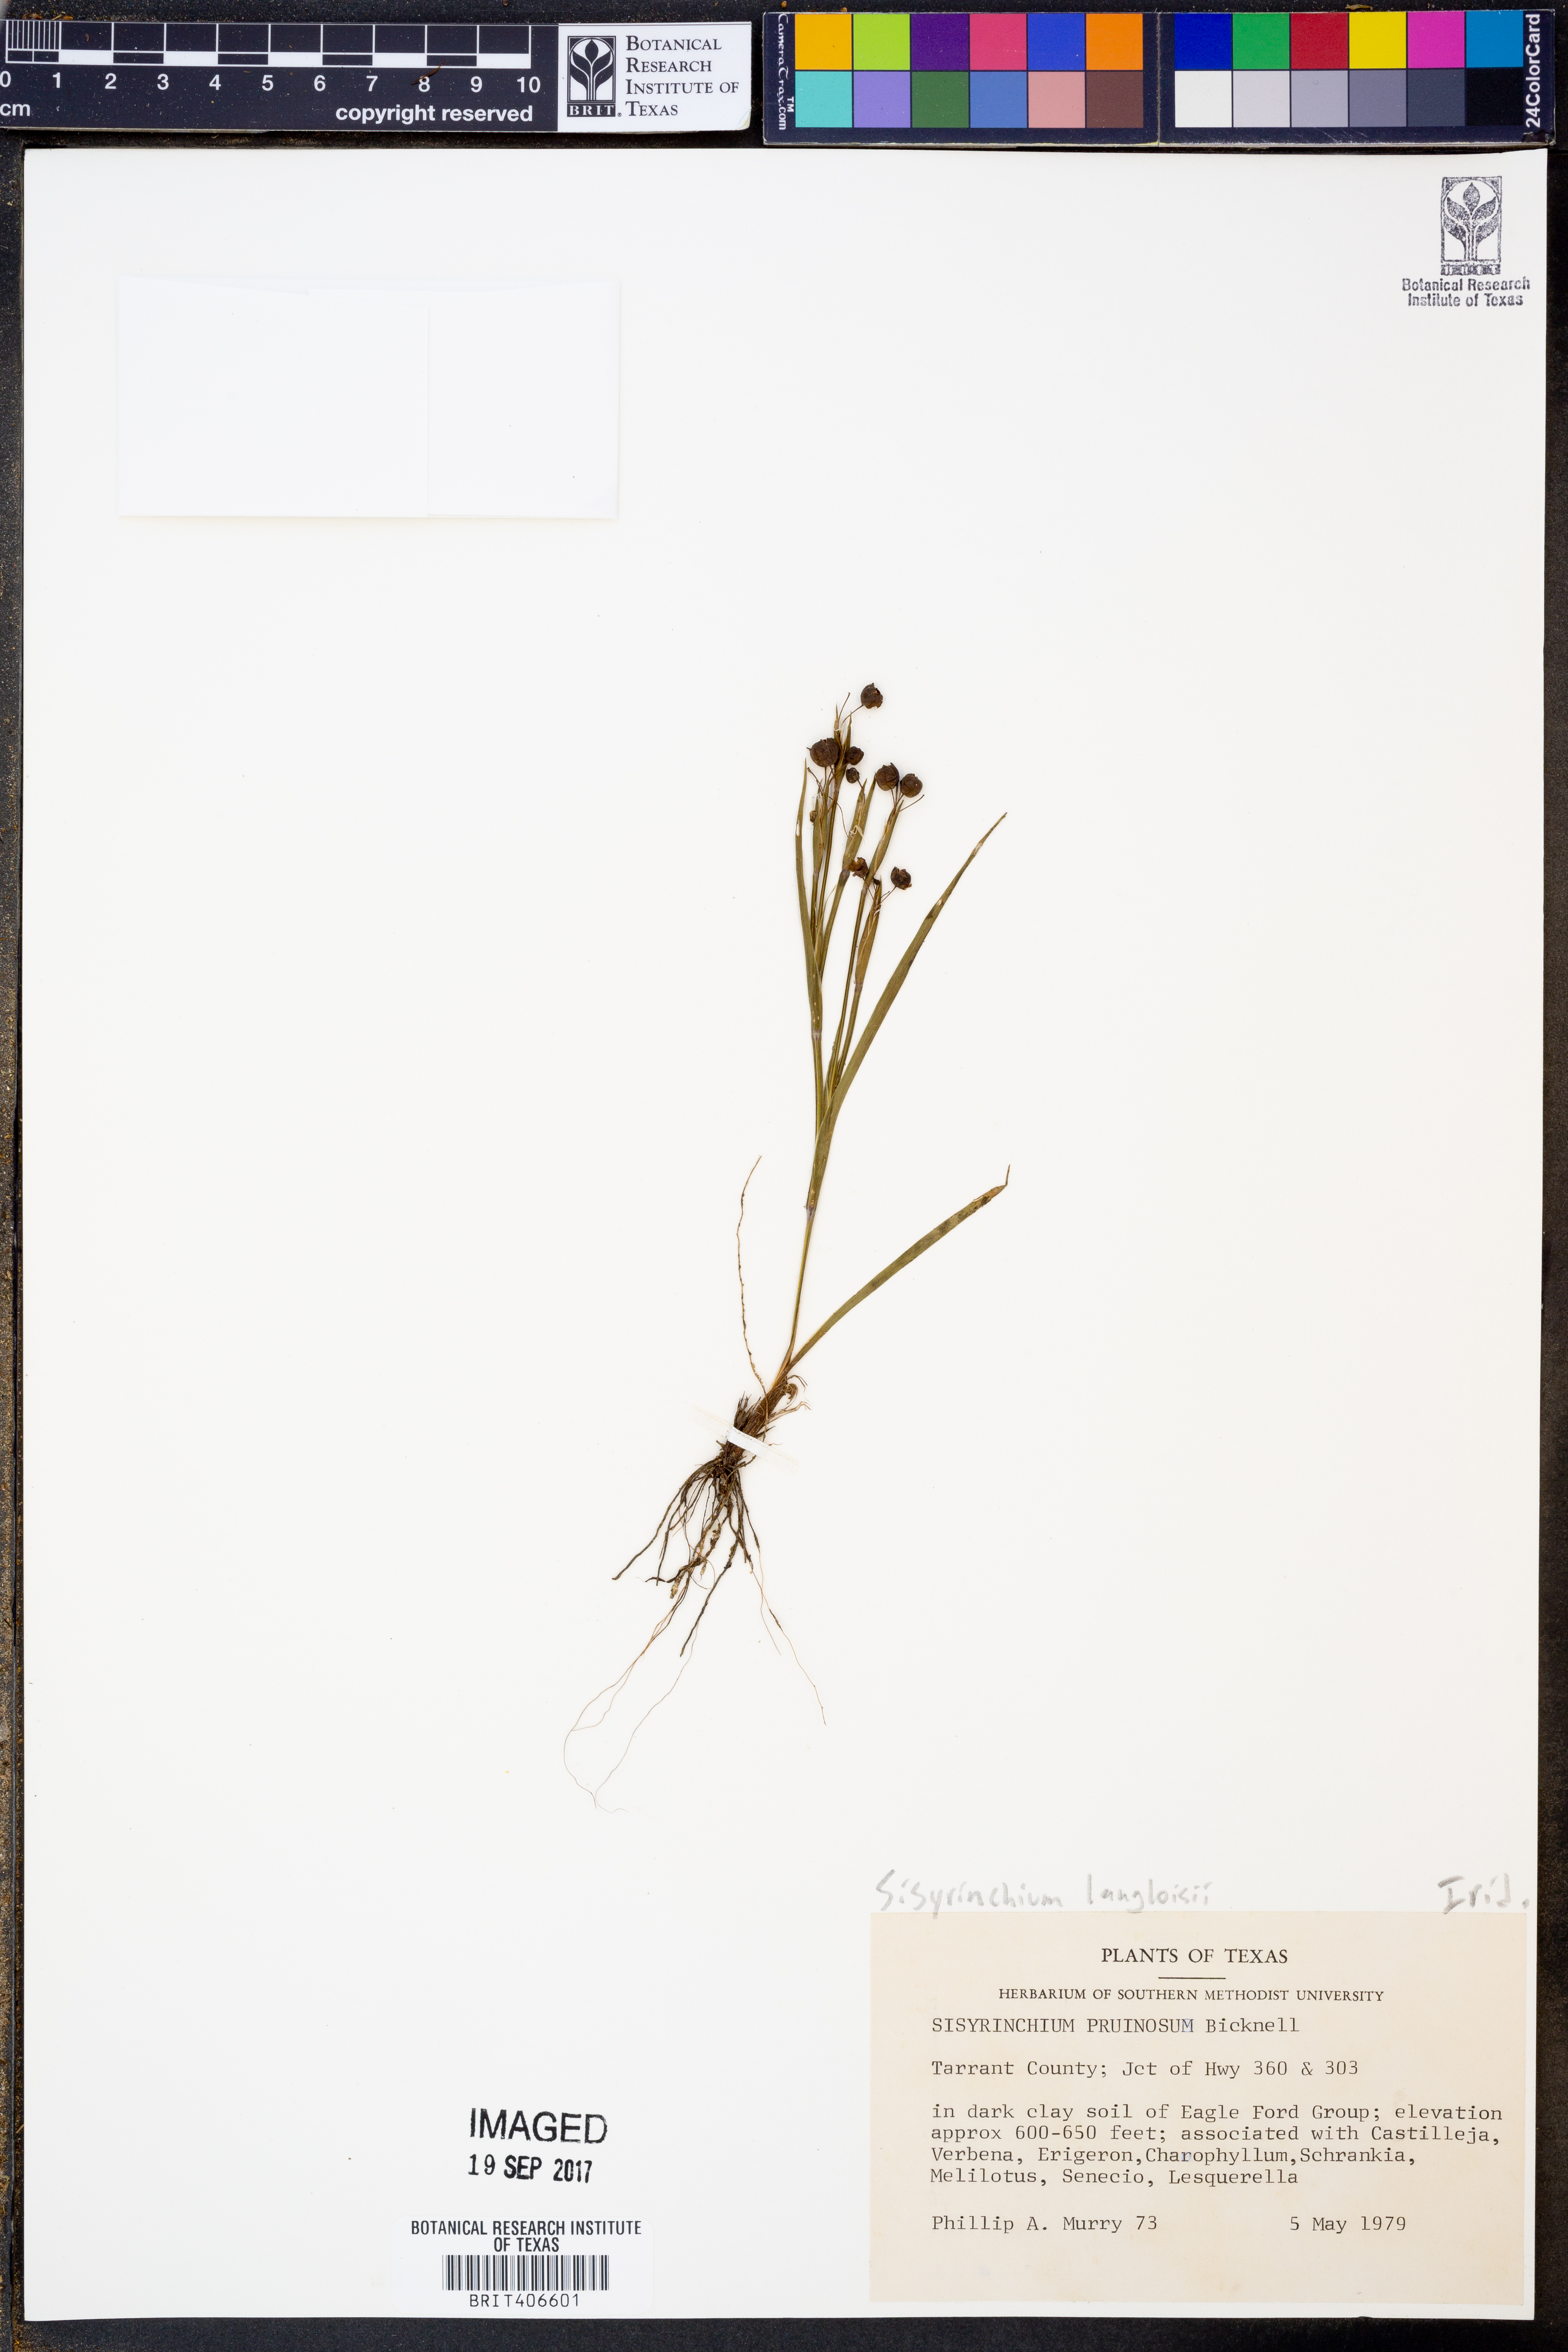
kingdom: Plantae
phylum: Tracheophyta
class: Liliopsida
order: Asparagales
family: Iridaceae
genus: Sisyrinchium
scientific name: Sisyrinchium langloisii
